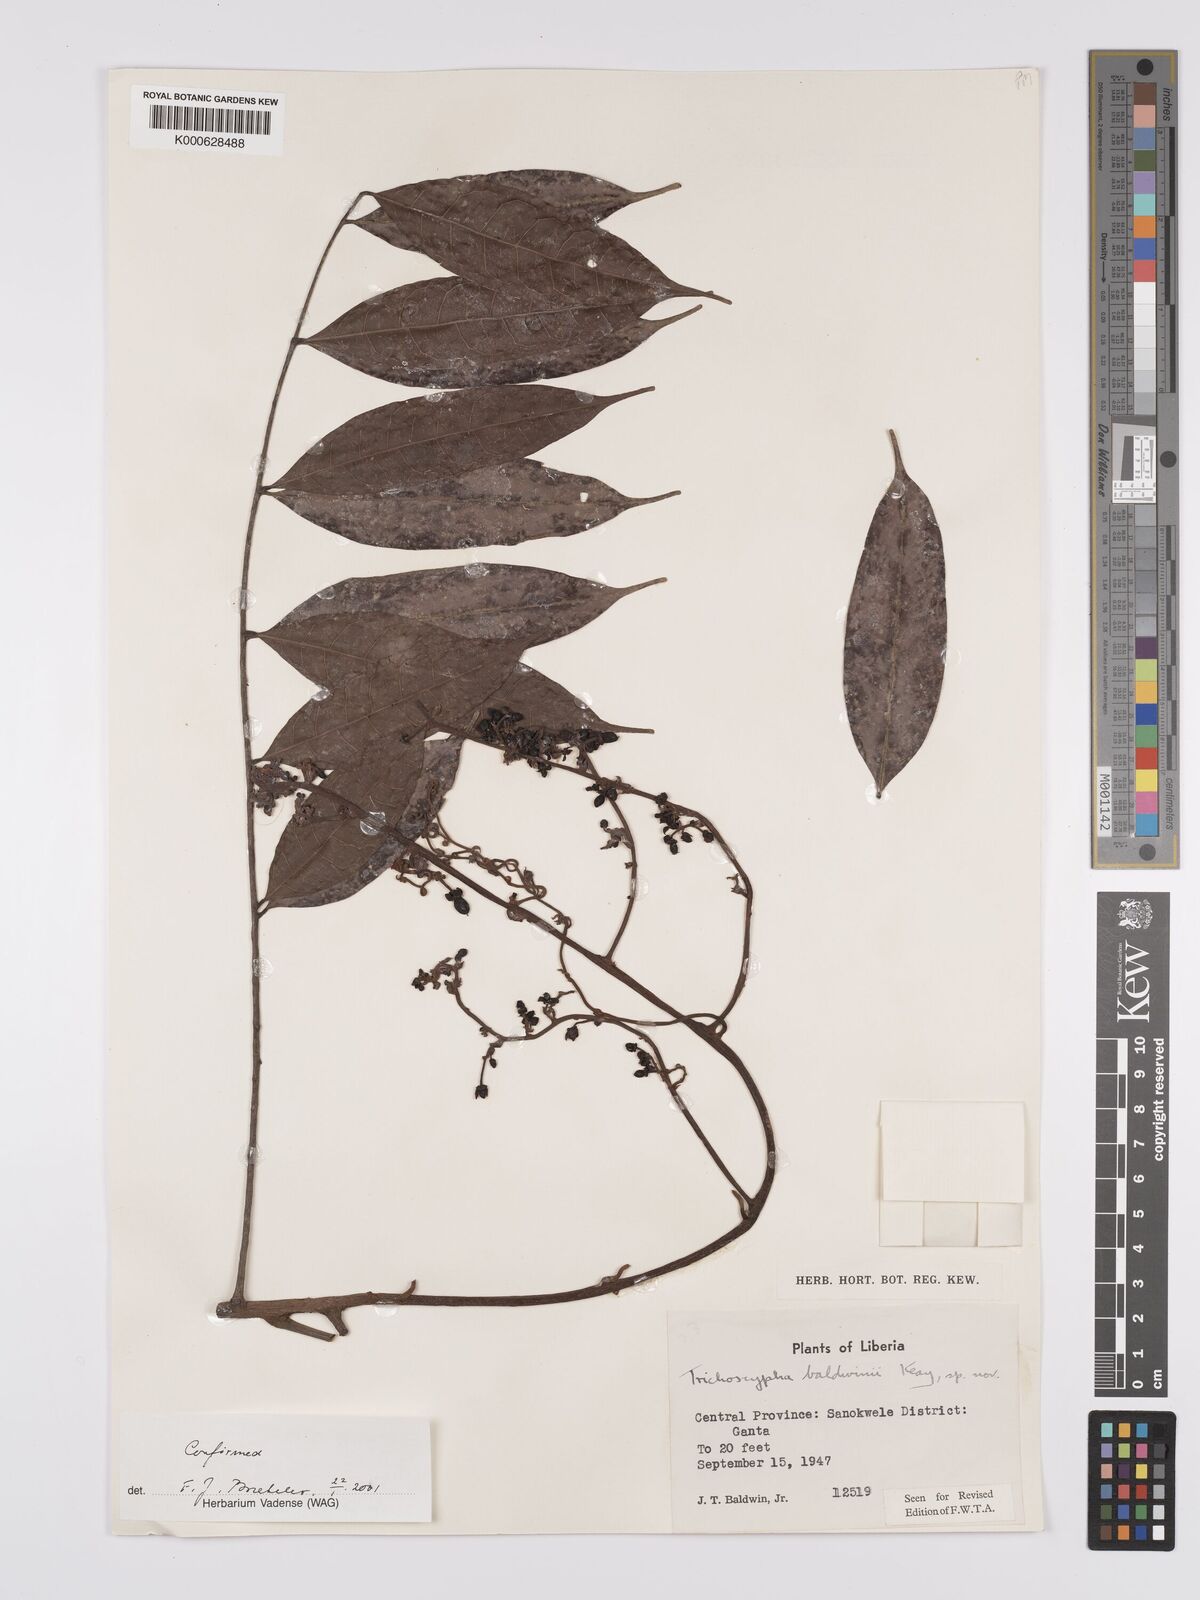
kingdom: Plantae
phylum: Tracheophyta
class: Magnoliopsida
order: Sapindales
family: Anacardiaceae
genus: Trichoscypha
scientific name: Trichoscypha baldwinii
